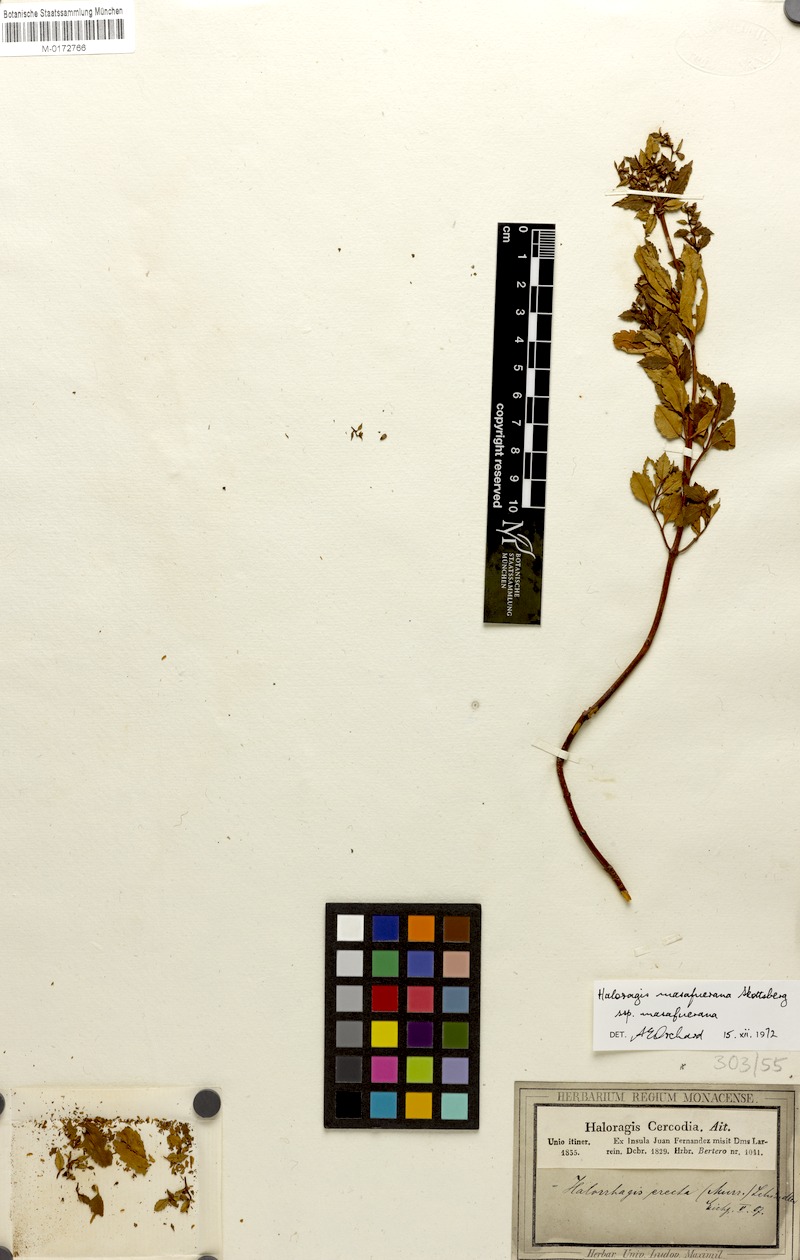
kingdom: Plantae
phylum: Tracheophyta
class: Magnoliopsida
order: Saxifragales
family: Haloragaceae
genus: Haloragis
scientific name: Haloragis masafuerana
